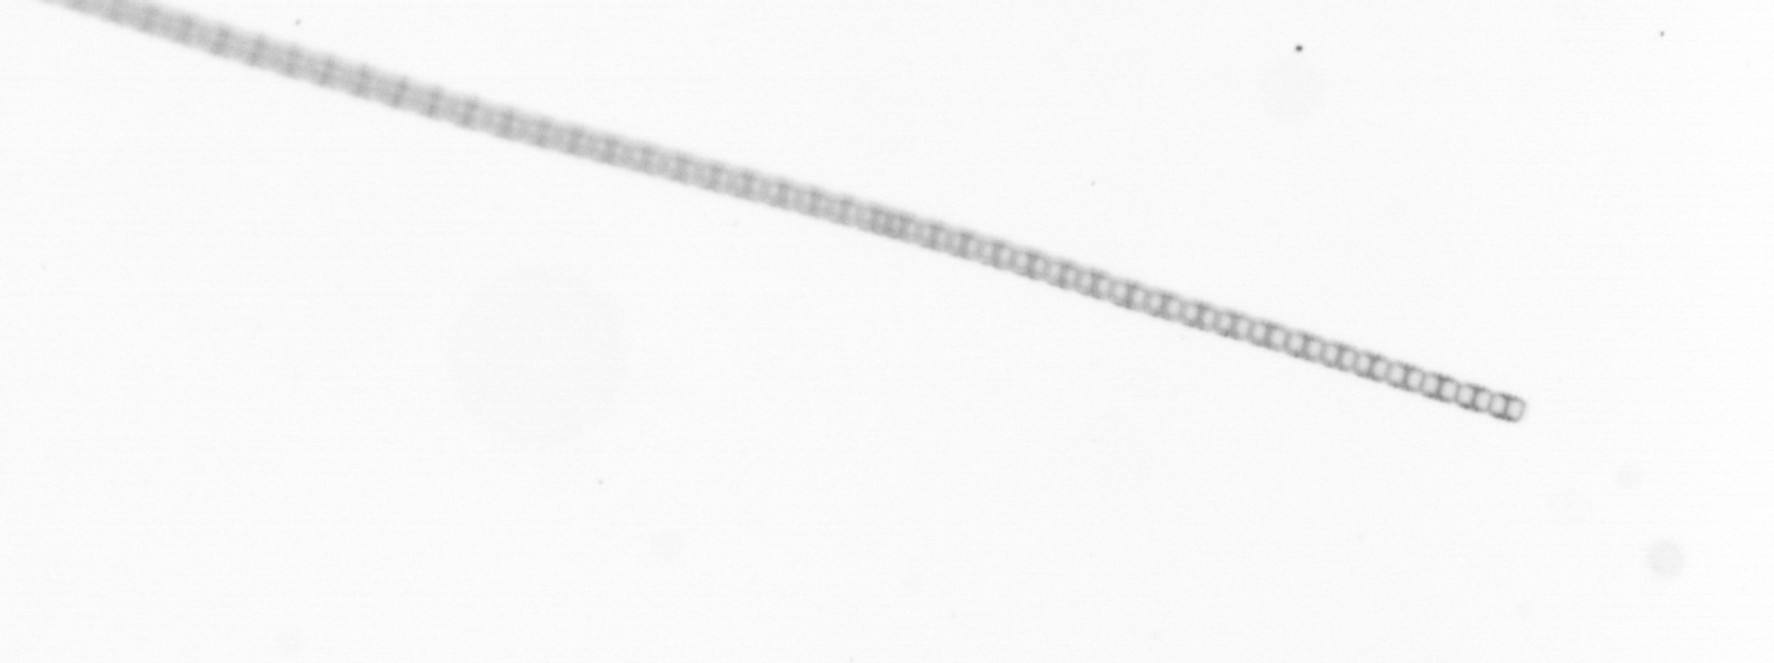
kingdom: Chromista
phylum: Ochrophyta
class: Bacillariophyceae
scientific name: Bacillariophyceae
